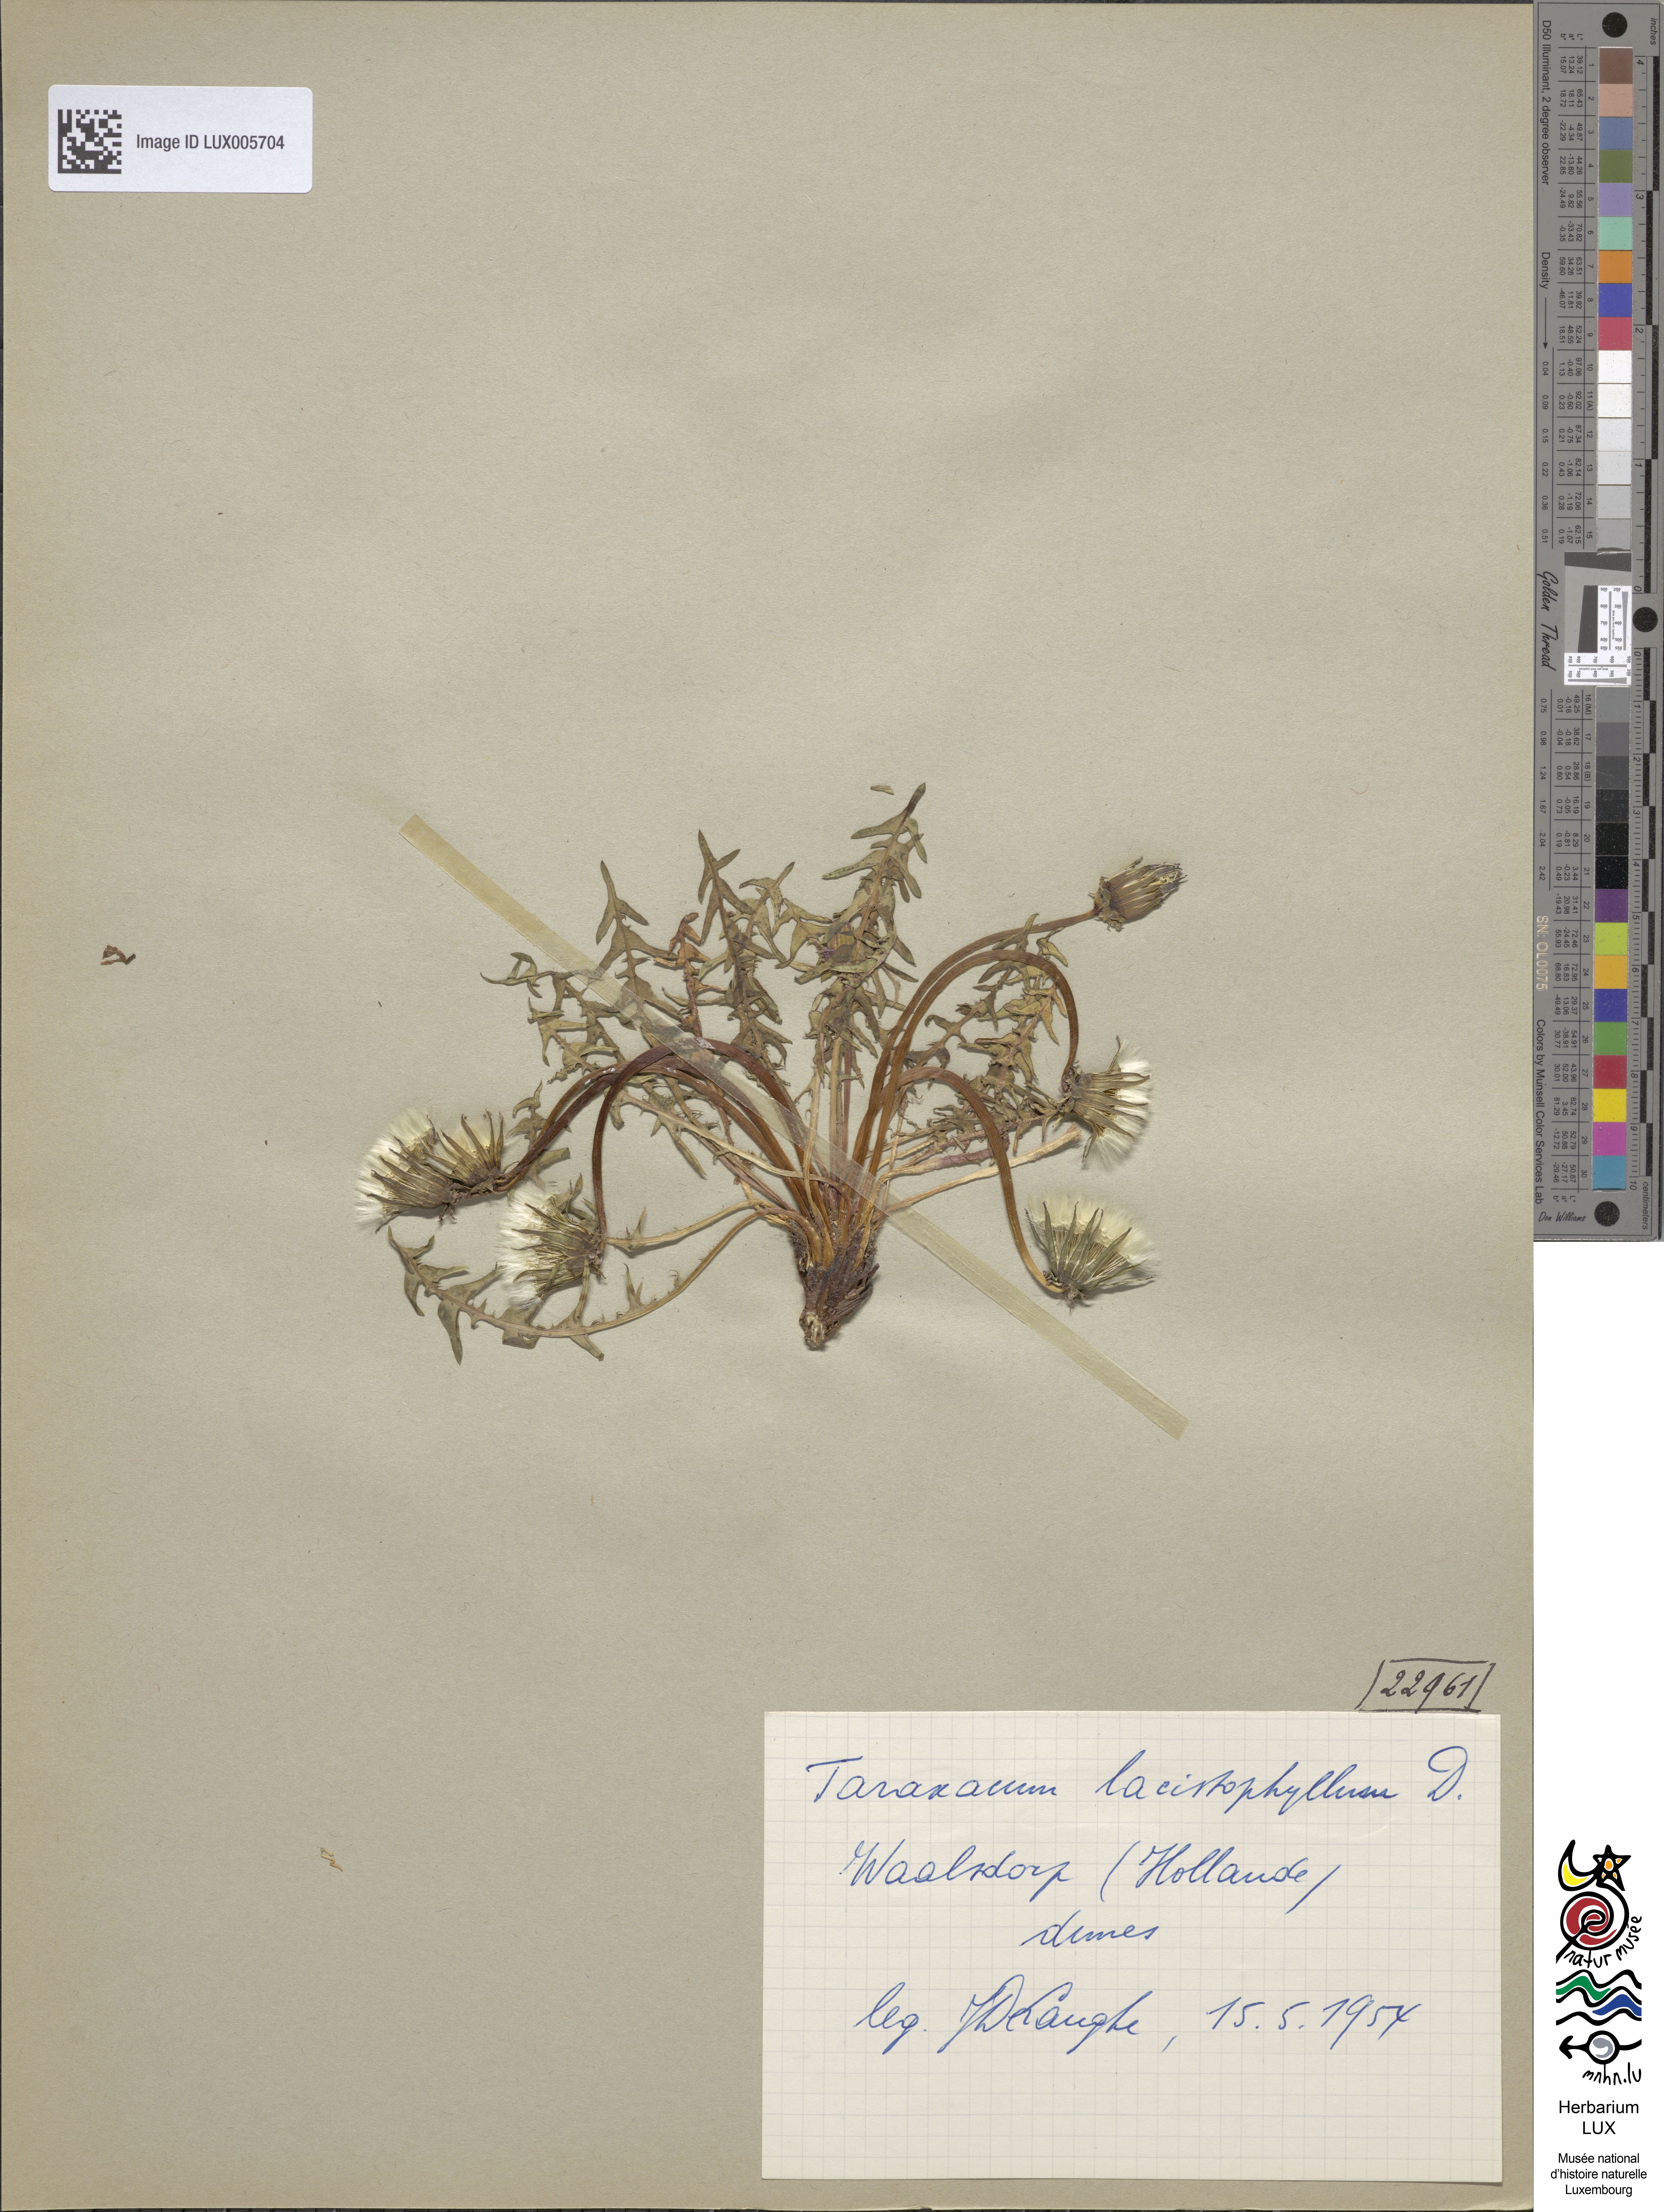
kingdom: Plantae
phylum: Tracheophyta
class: Magnoliopsida
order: Asterales
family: Asteraceae
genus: Taraxacum
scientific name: Taraxacum lacistophyllum
